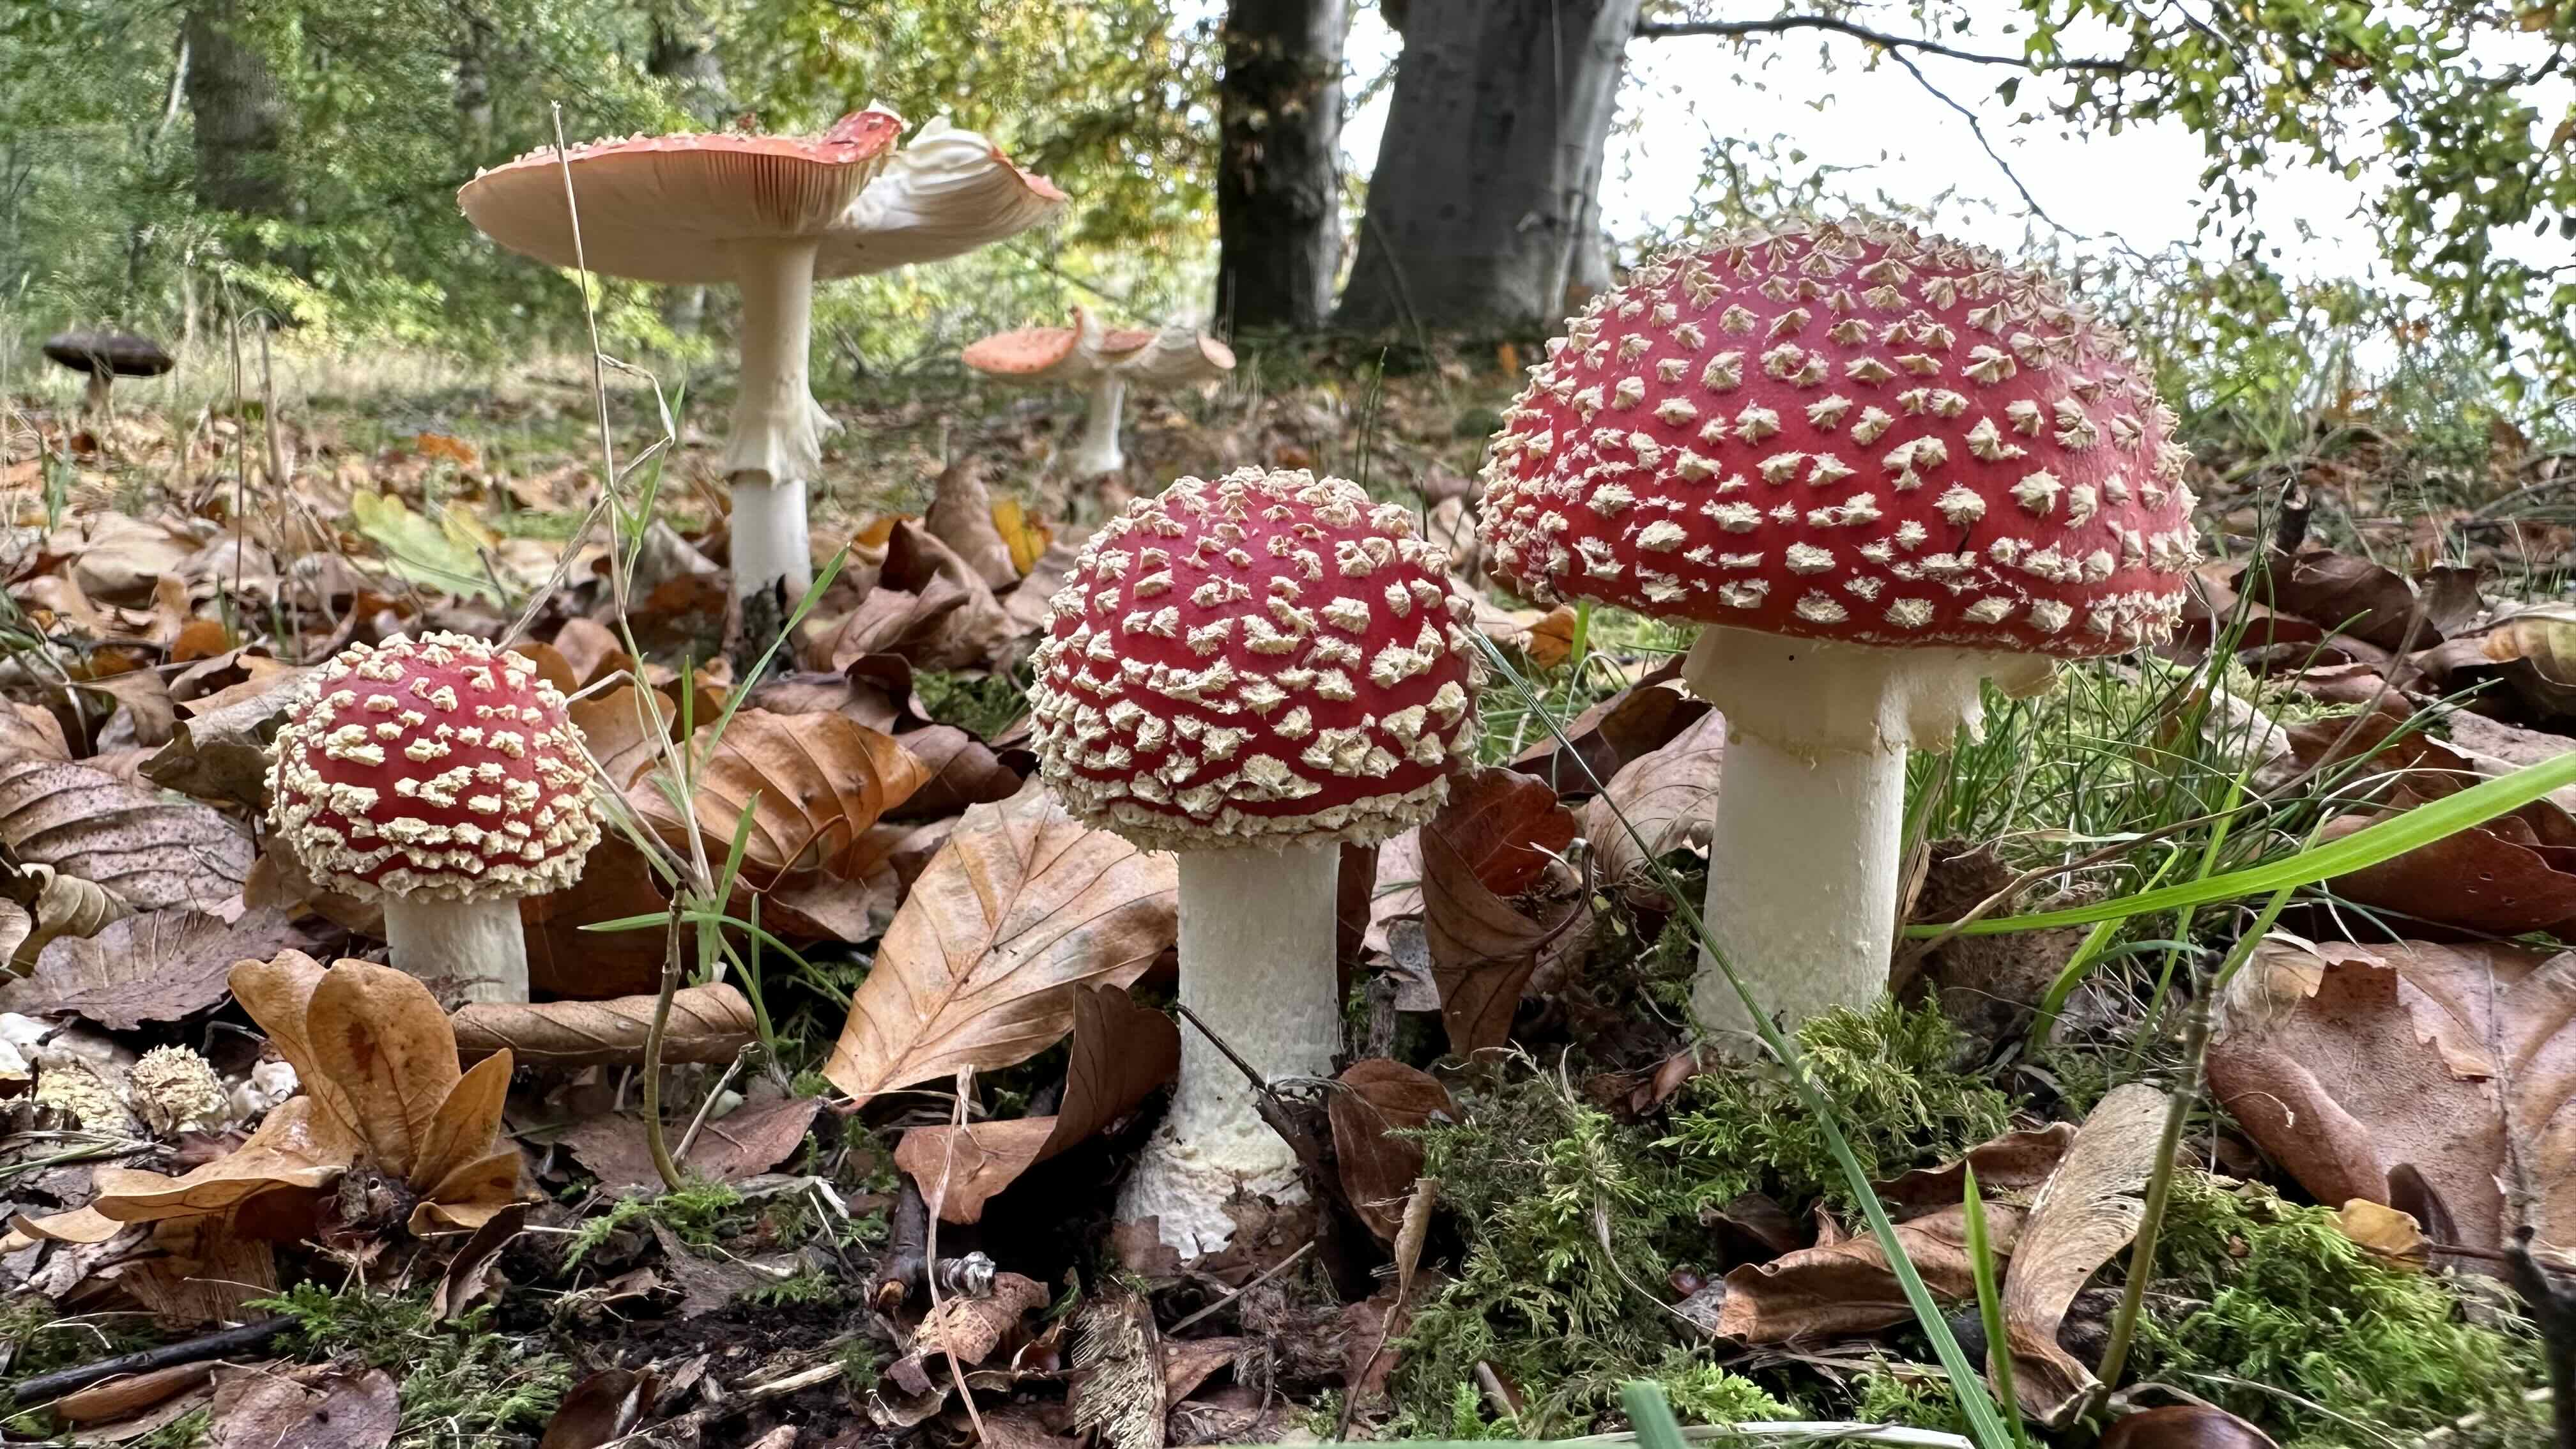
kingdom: Fungi
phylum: Basidiomycota
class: Agaricomycetes
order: Agaricales
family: Amanitaceae
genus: Amanita
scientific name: Amanita muscaria
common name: rød fluesvamp
